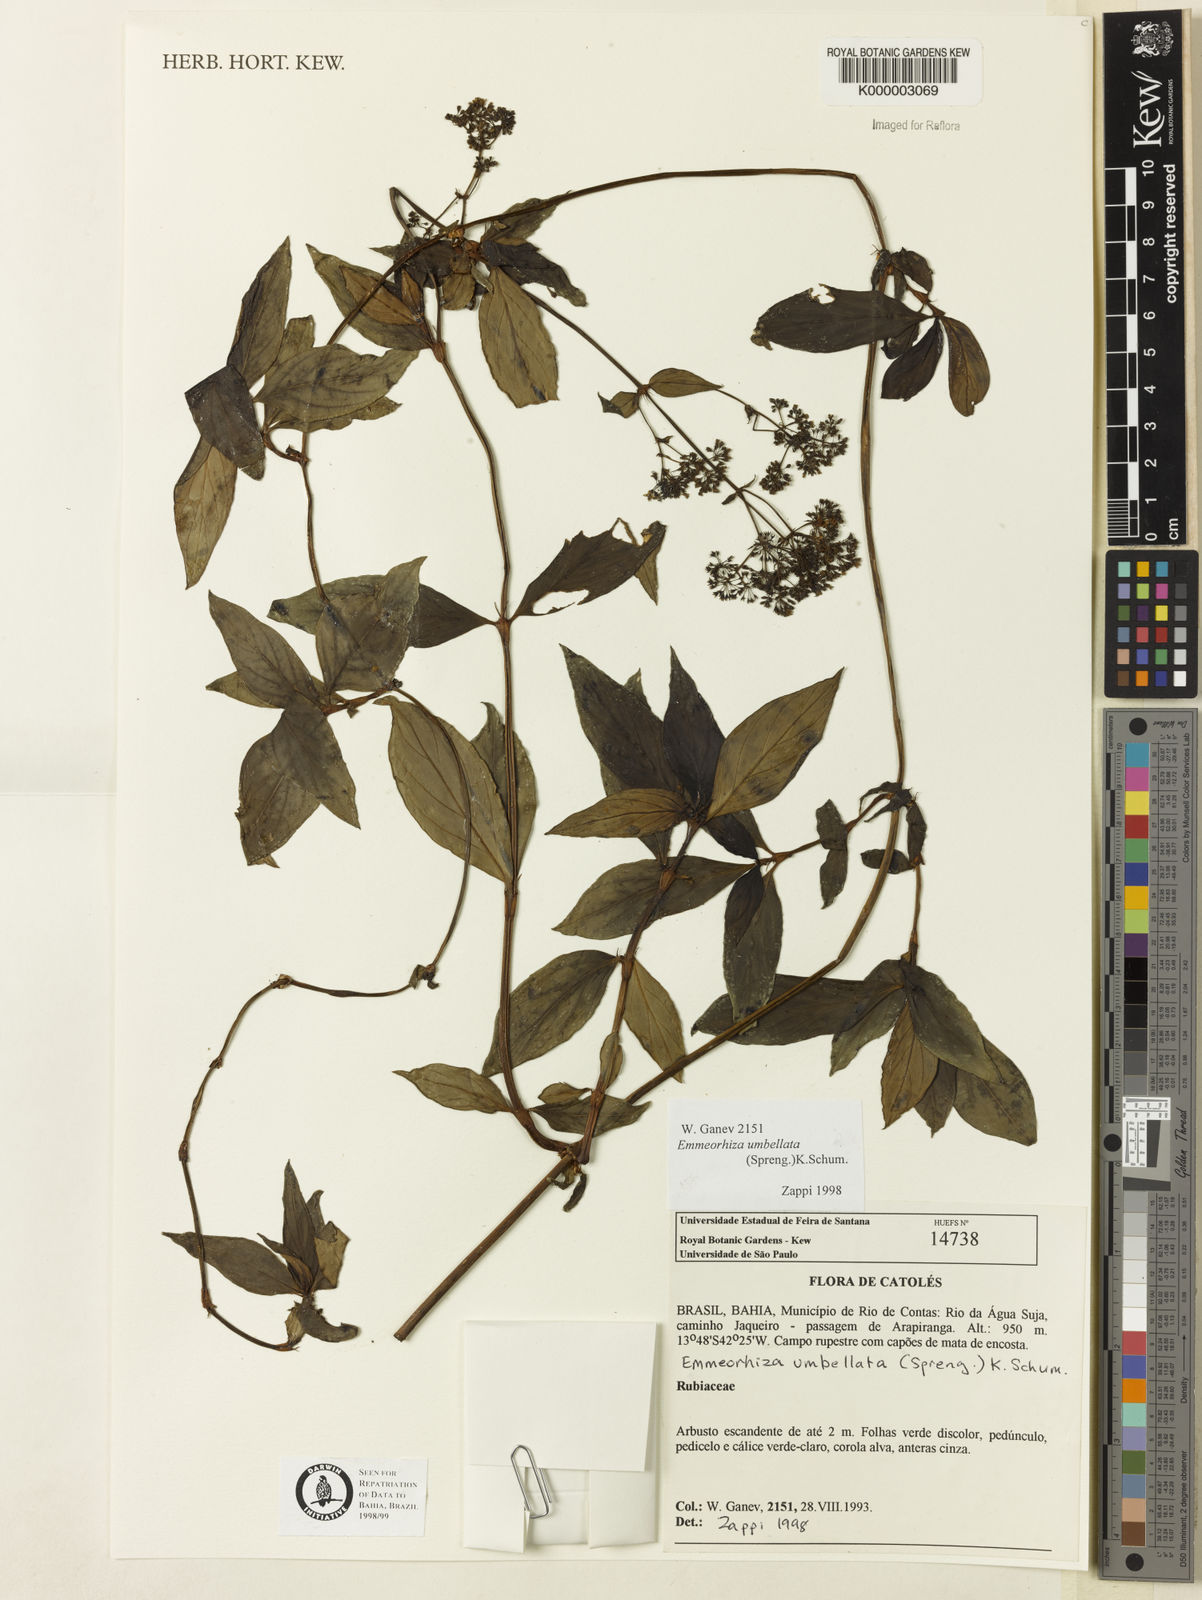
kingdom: Plantae
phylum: Tracheophyta
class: Magnoliopsida
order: Gentianales
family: Rubiaceae
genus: Emmeorhiza
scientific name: Emmeorhiza umbellata
